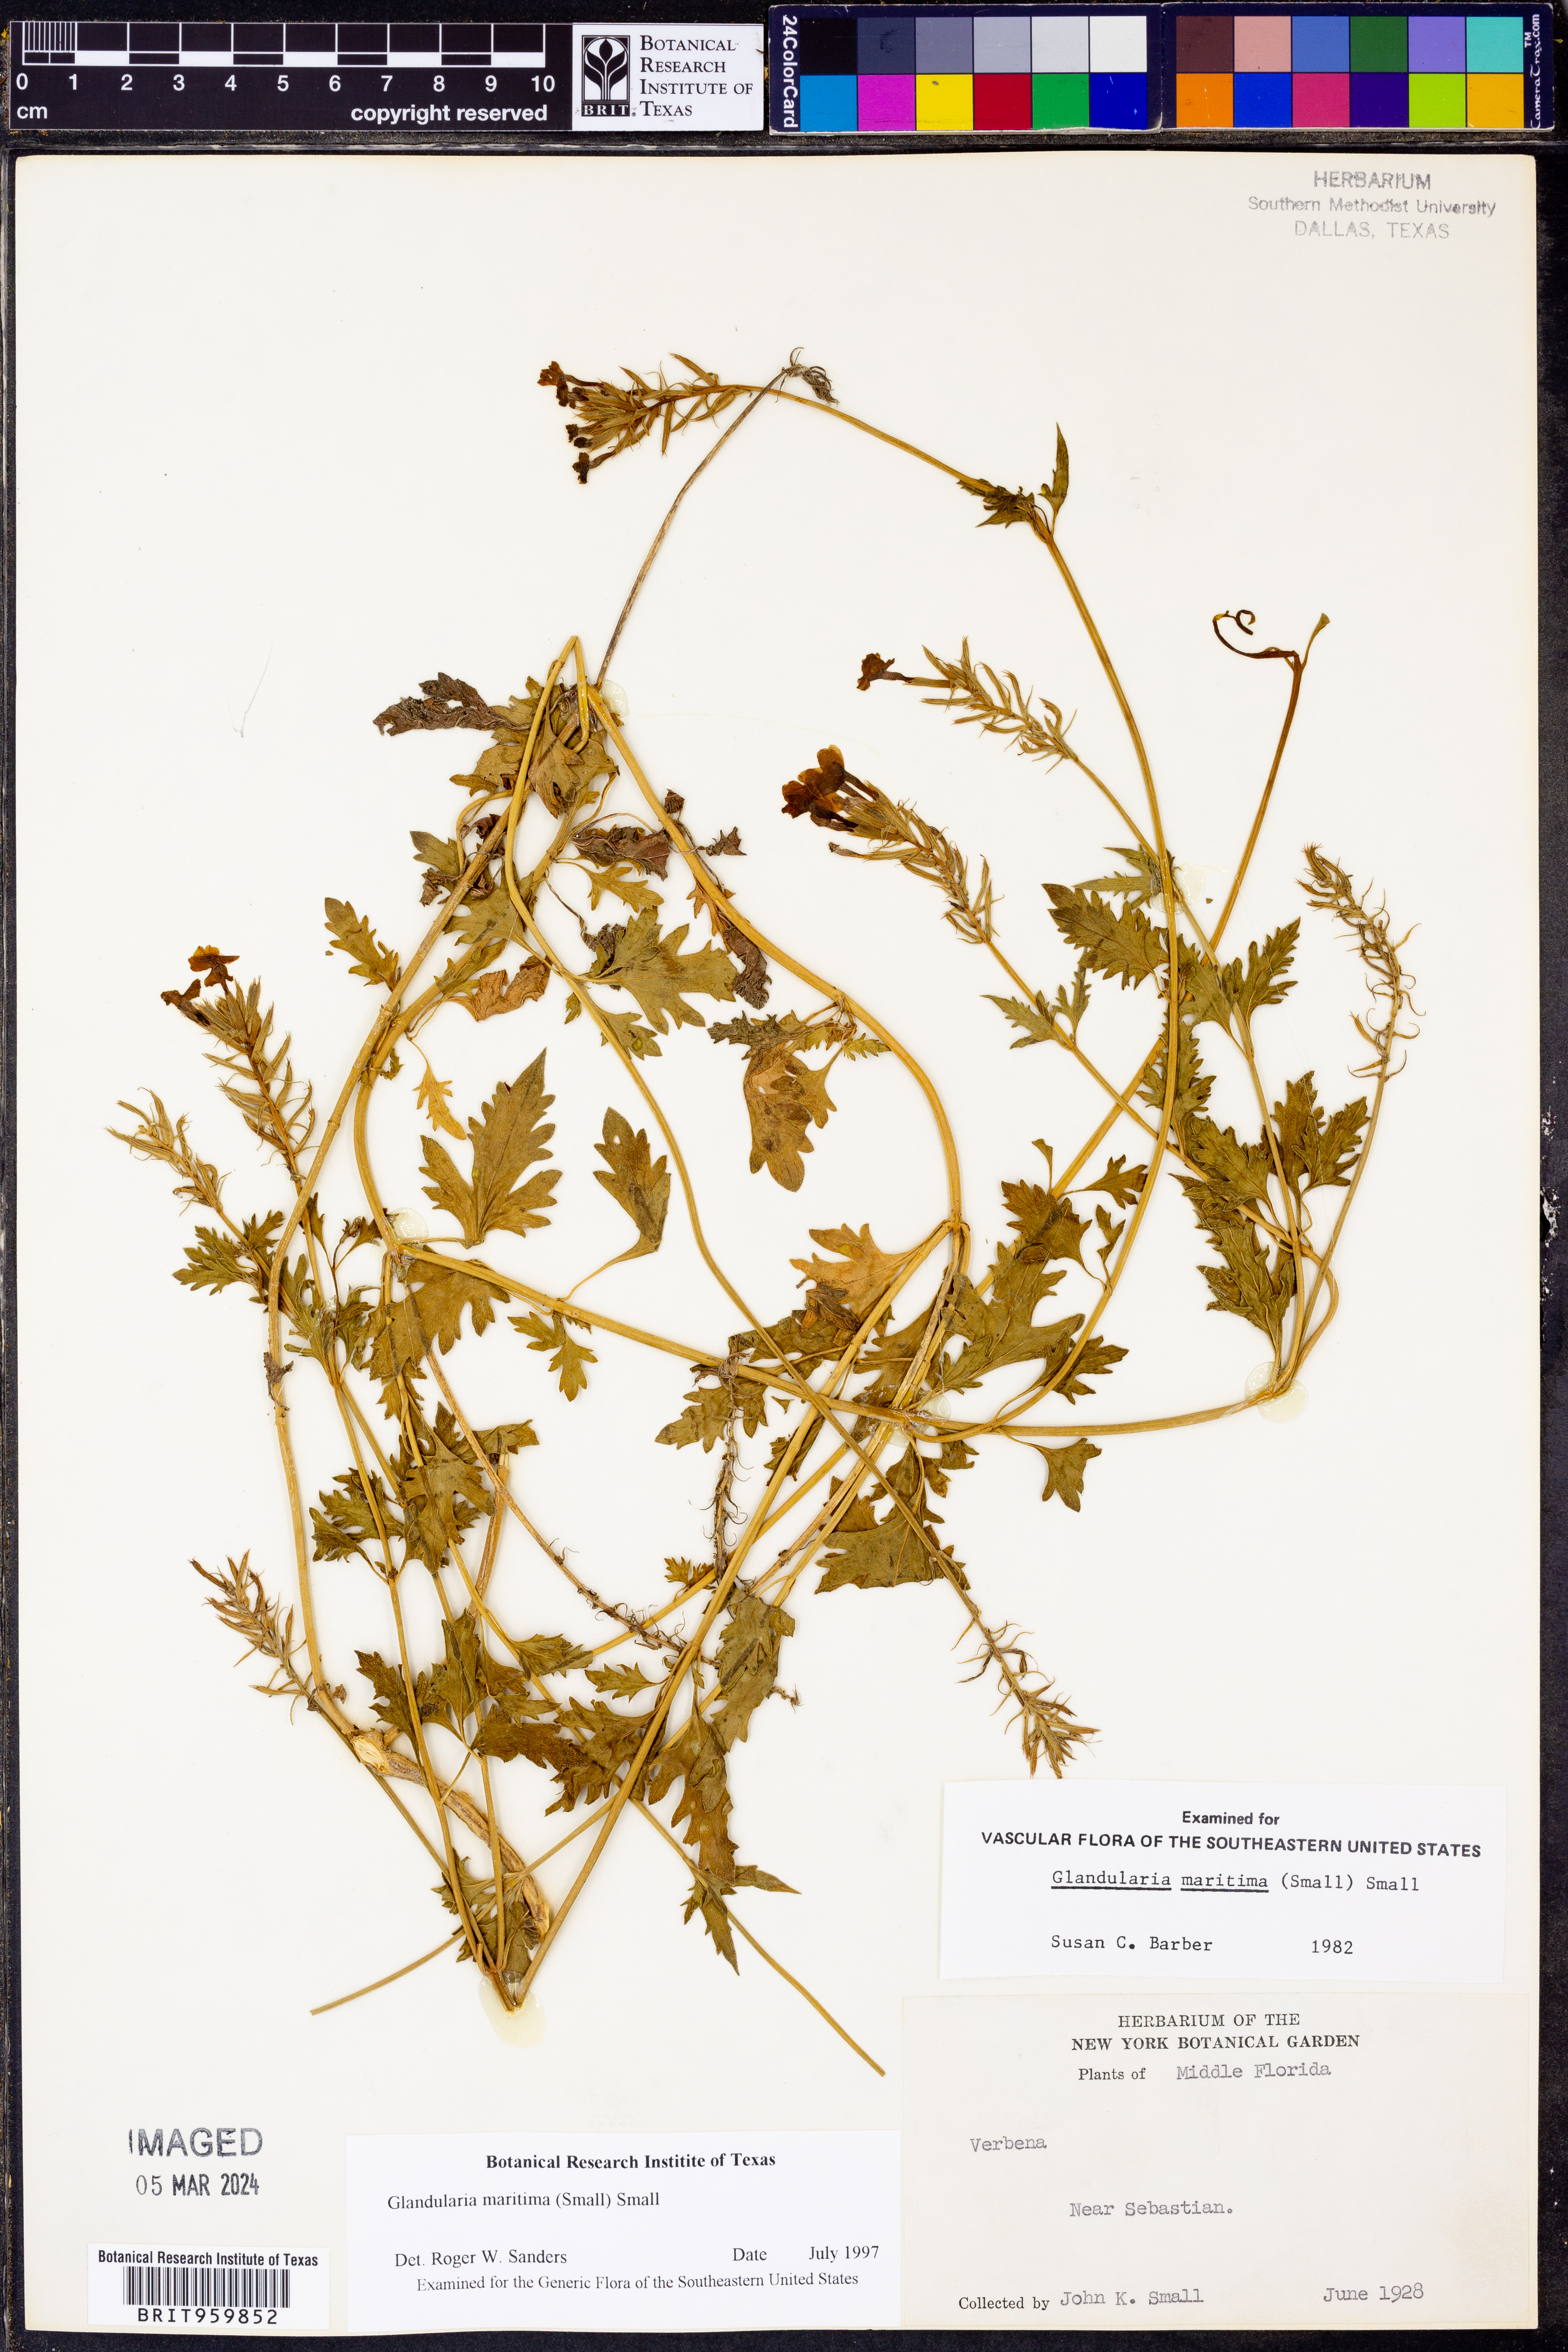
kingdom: Plantae
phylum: Tracheophyta
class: Magnoliopsida
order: Lamiales
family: Verbenaceae
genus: Verbena
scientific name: Verbena maritima
